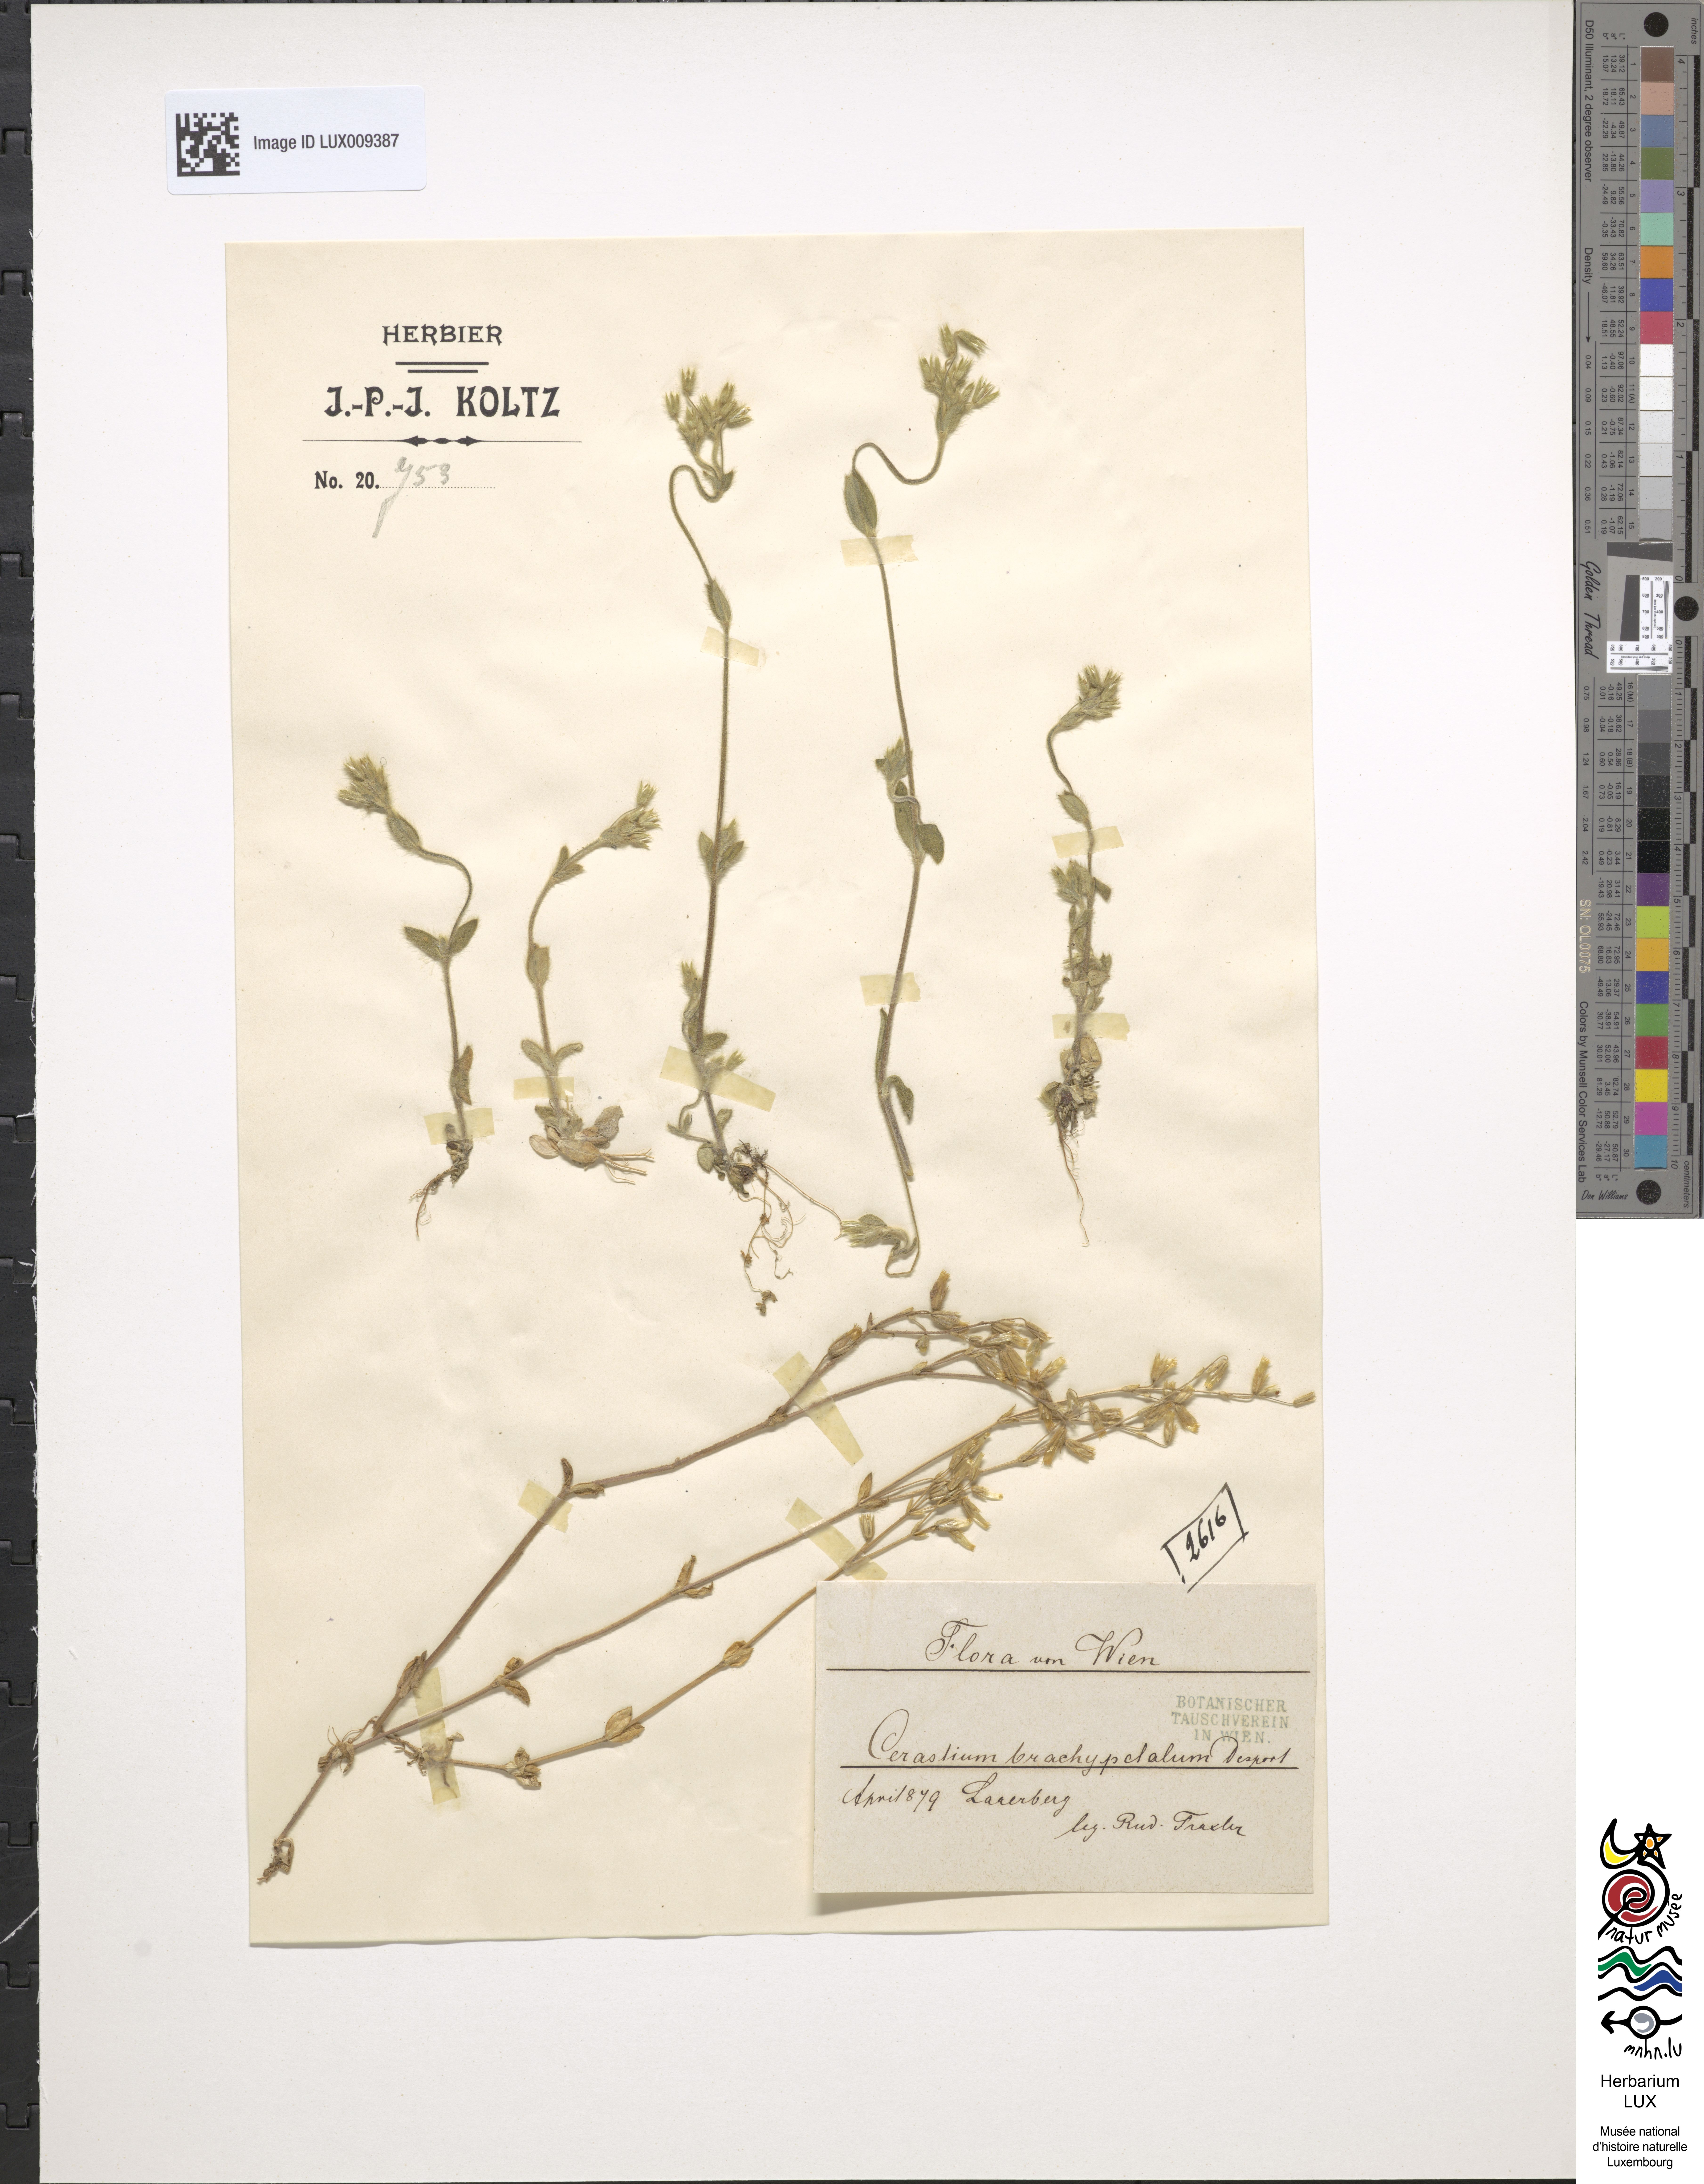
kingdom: Plantae
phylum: Tracheophyta
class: Magnoliopsida
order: Caryophyllales
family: Caryophyllaceae
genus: Cerastium
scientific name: Cerastium brachypetalum
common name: Grey mouse-ear
